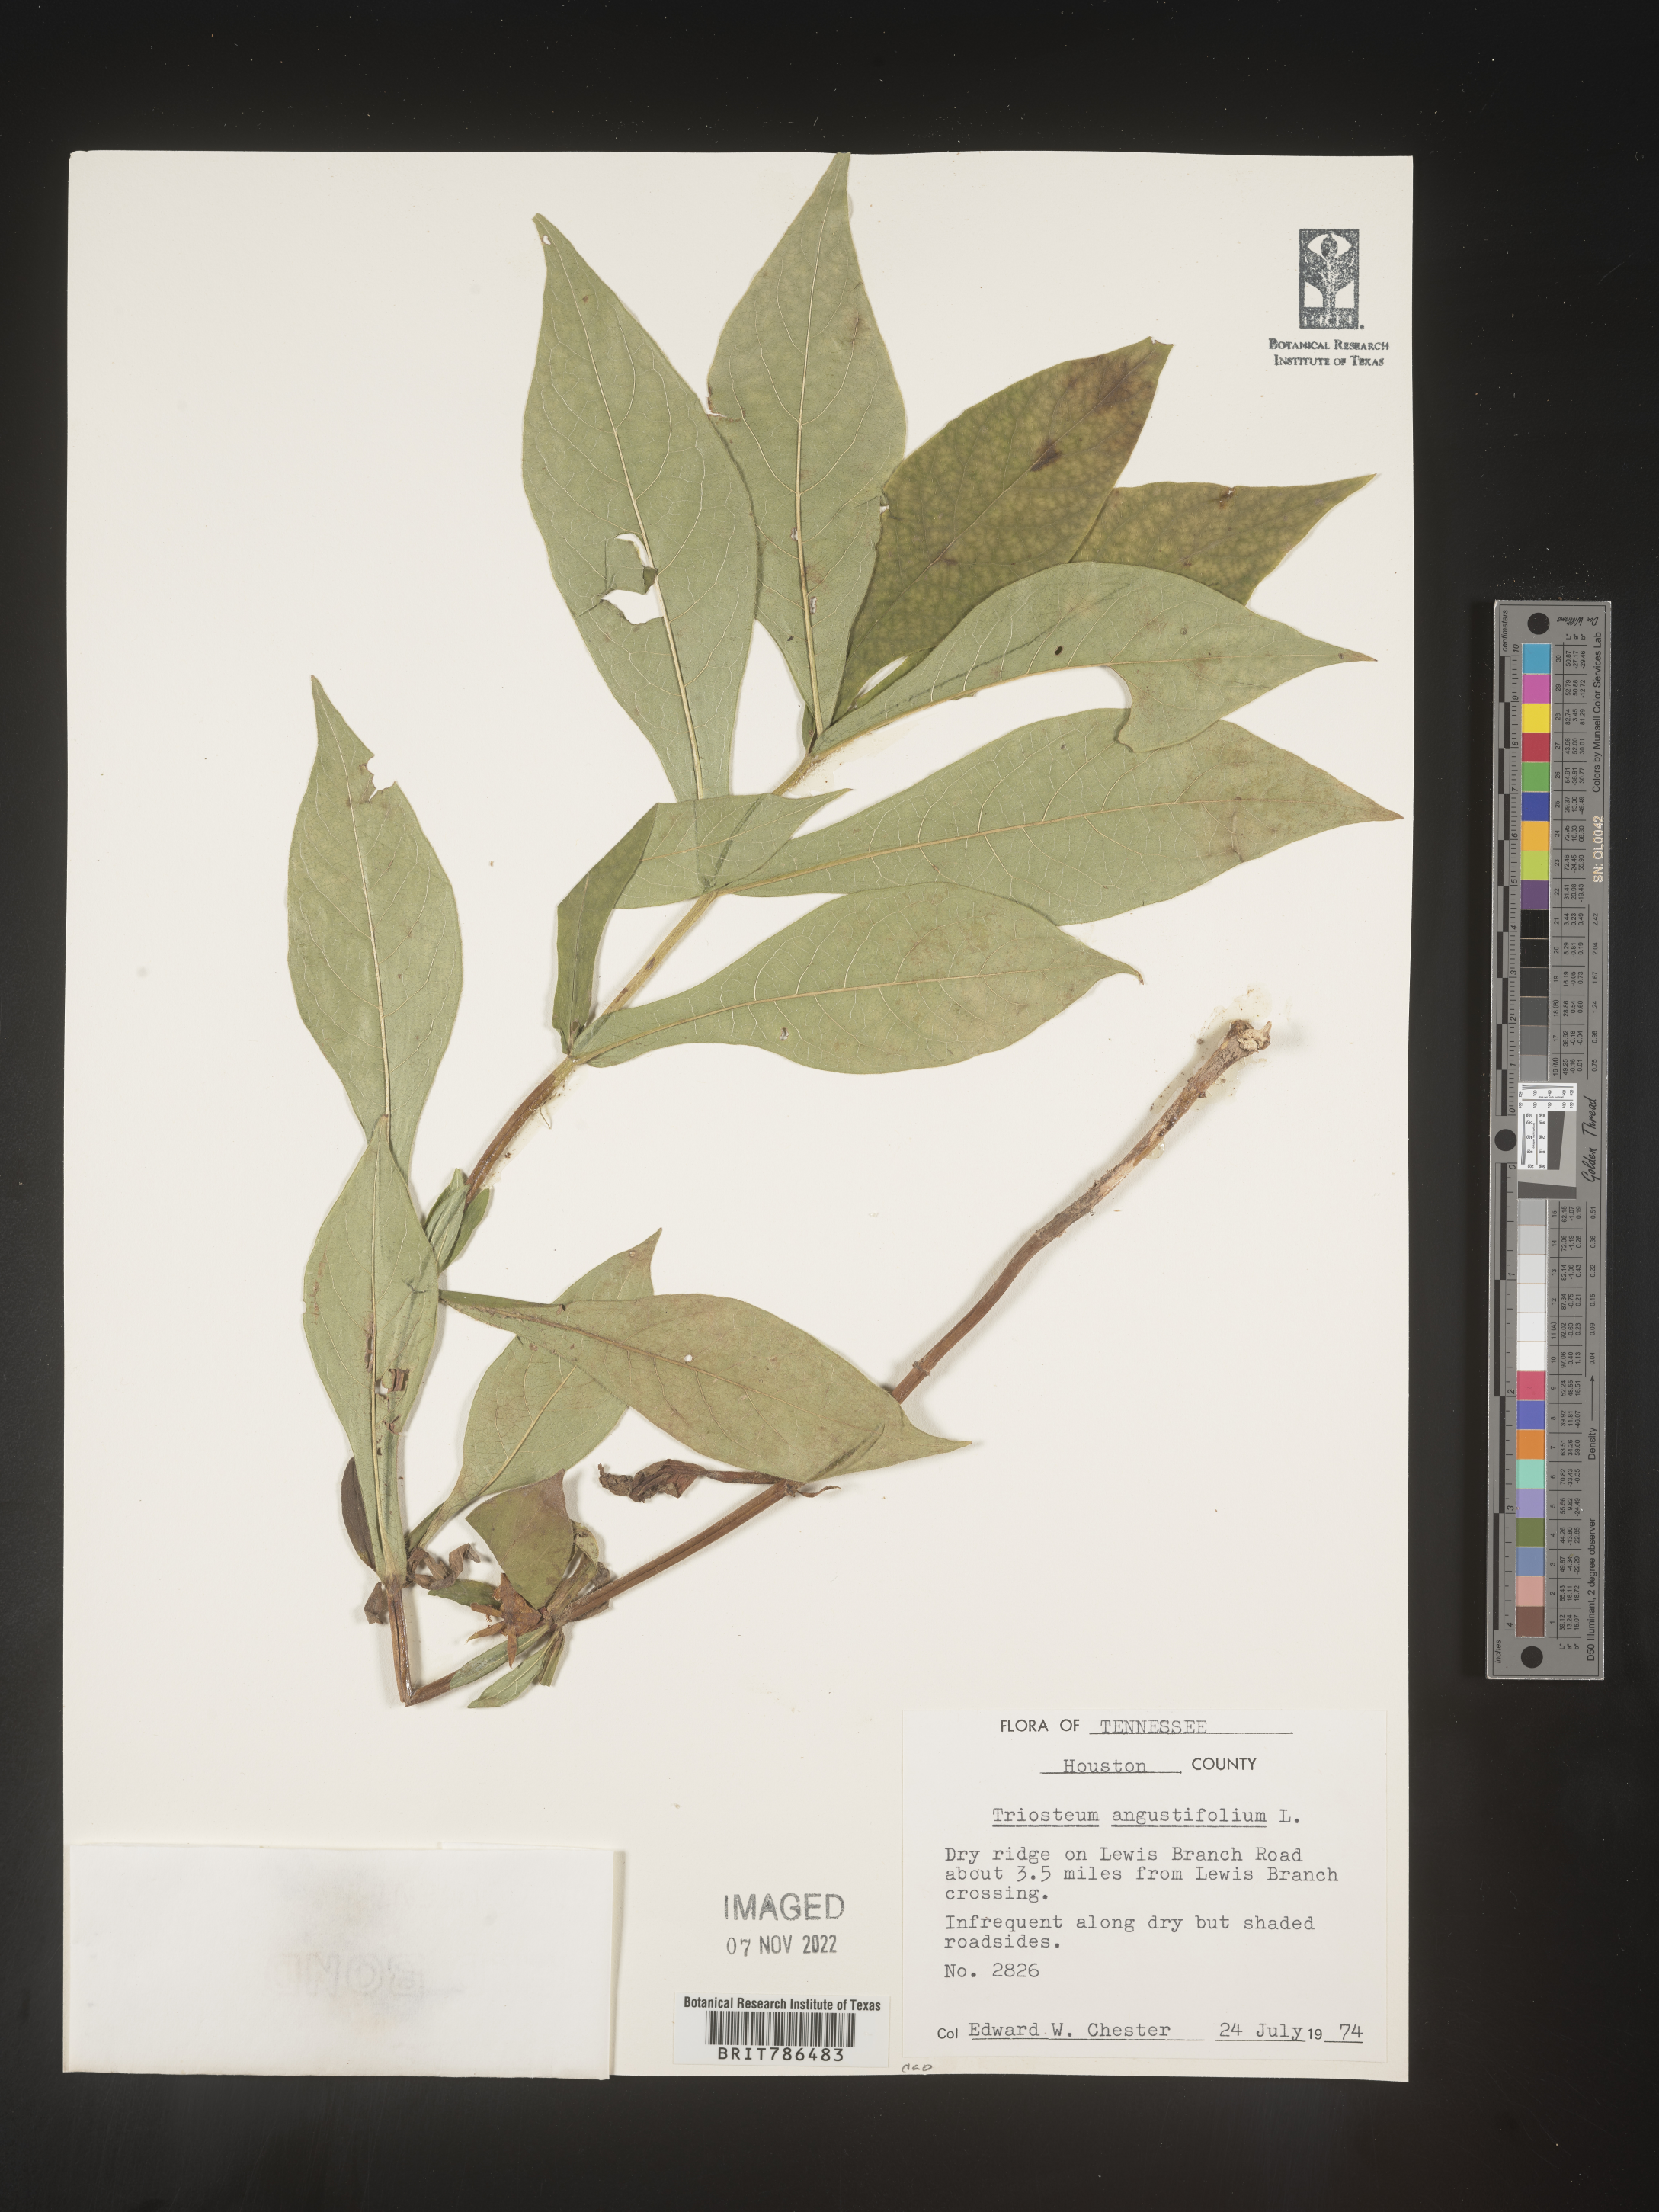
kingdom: Plantae
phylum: Tracheophyta
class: Magnoliopsida
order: Dipsacales
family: Caprifoliaceae
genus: Triosteum
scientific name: Triosteum angustifolium
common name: Narrow-leaved horse-gentian
